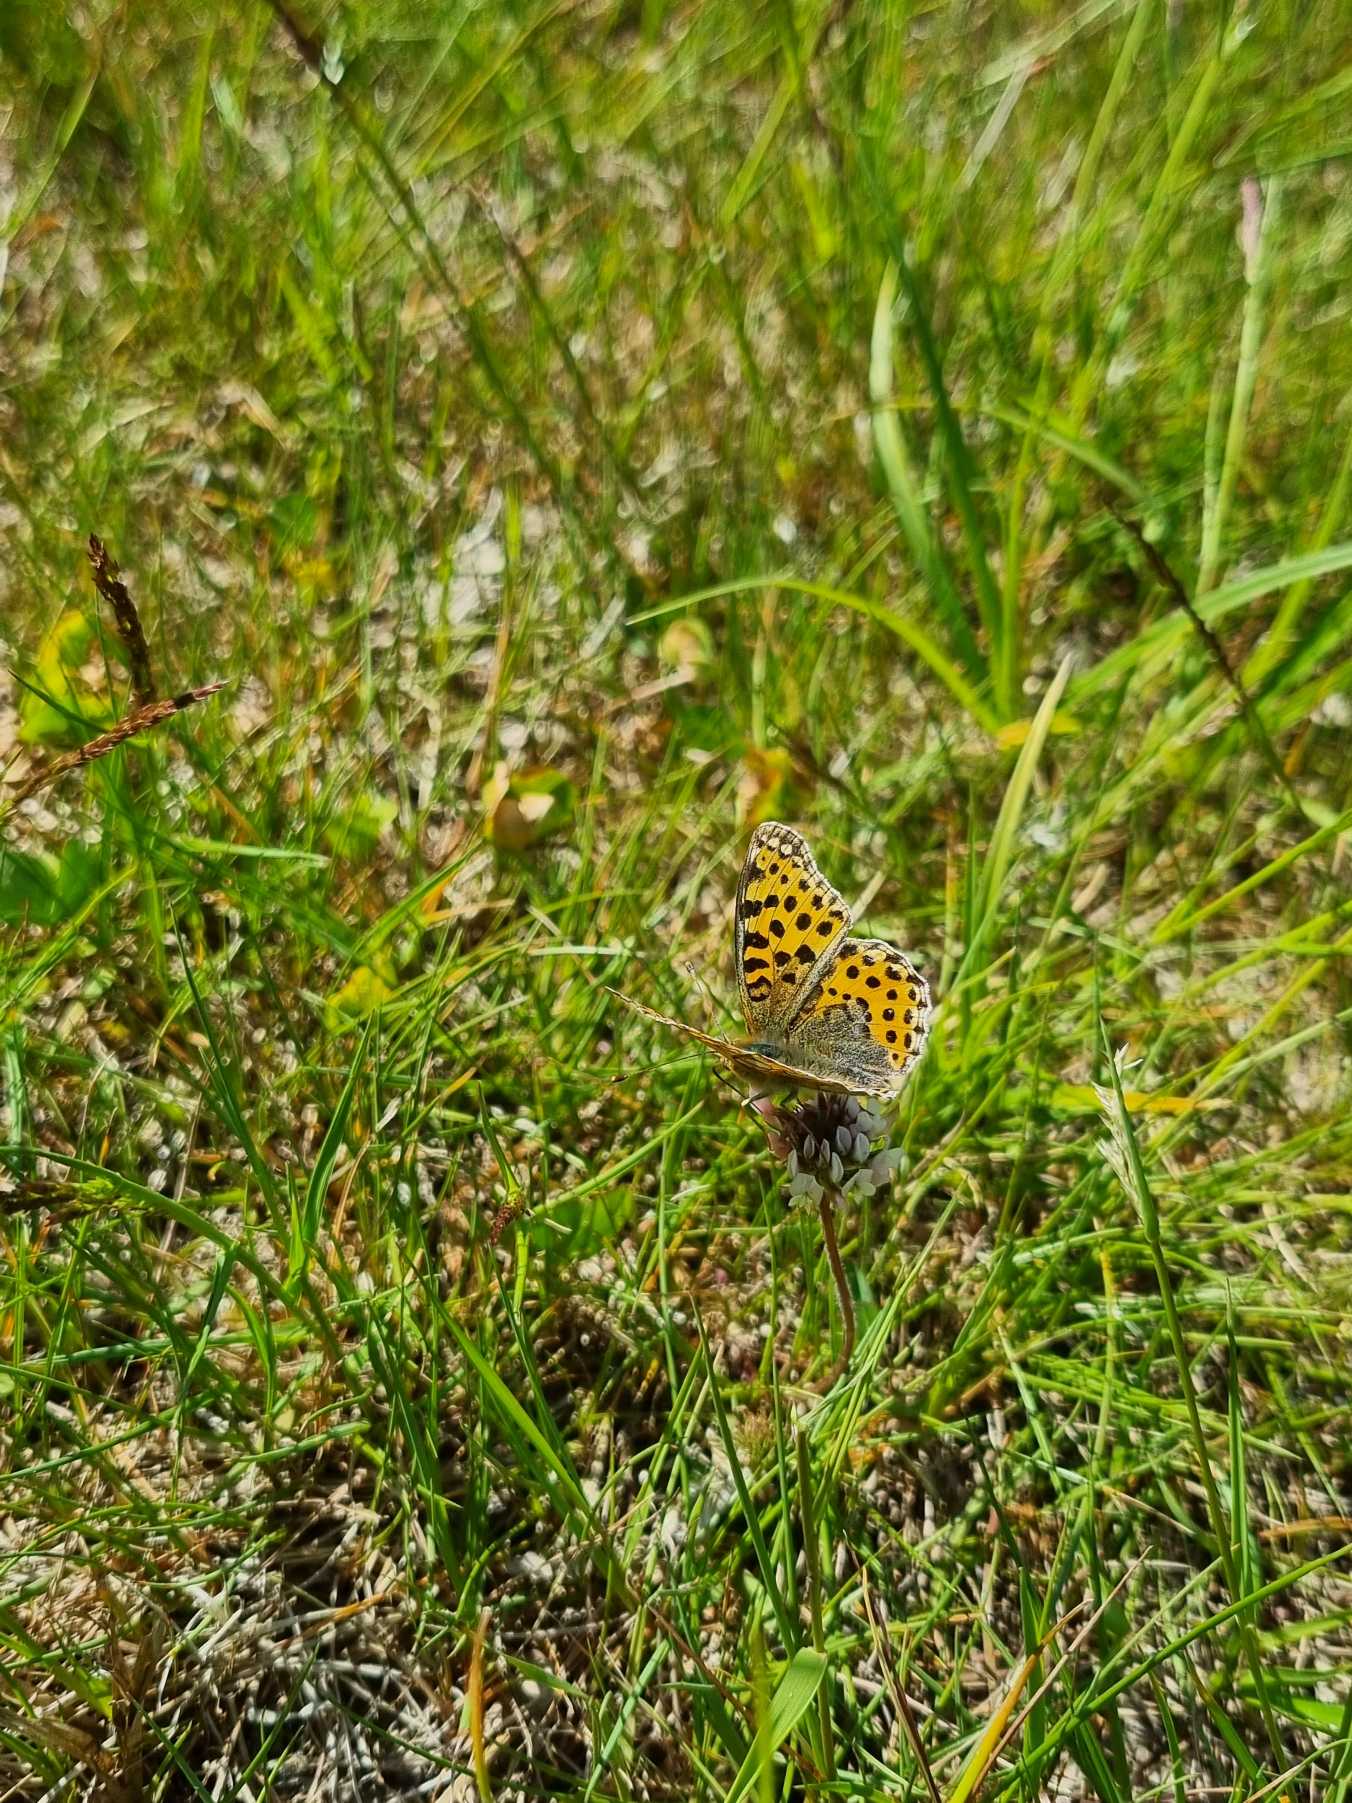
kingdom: Animalia
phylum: Arthropoda
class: Insecta
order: Lepidoptera
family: Nymphalidae
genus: Issoria
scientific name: Issoria lathonia
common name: Storplettet perlemorsommerfugl
